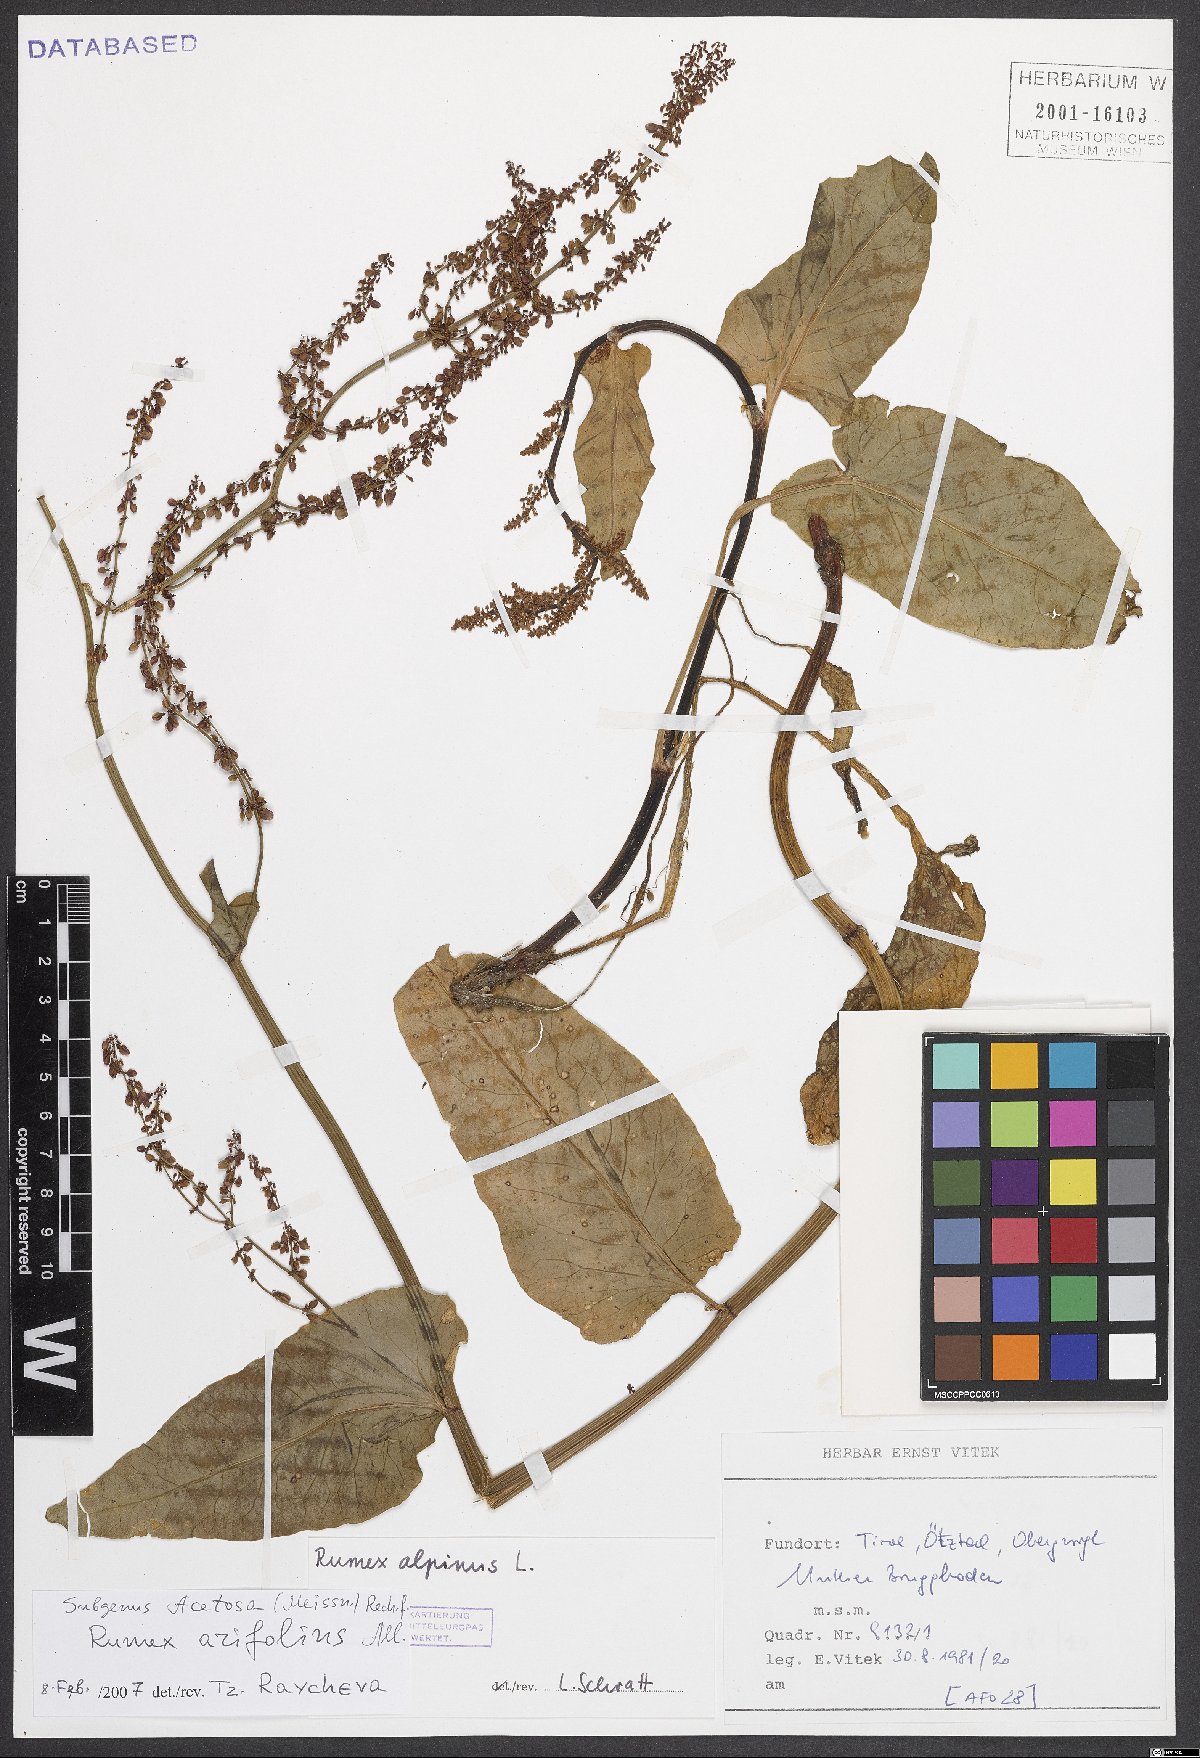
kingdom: Plantae
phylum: Tracheophyta
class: Magnoliopsida
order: Caryophyllales
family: Polygonaceae
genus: Rumex
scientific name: Rumex arifolius
